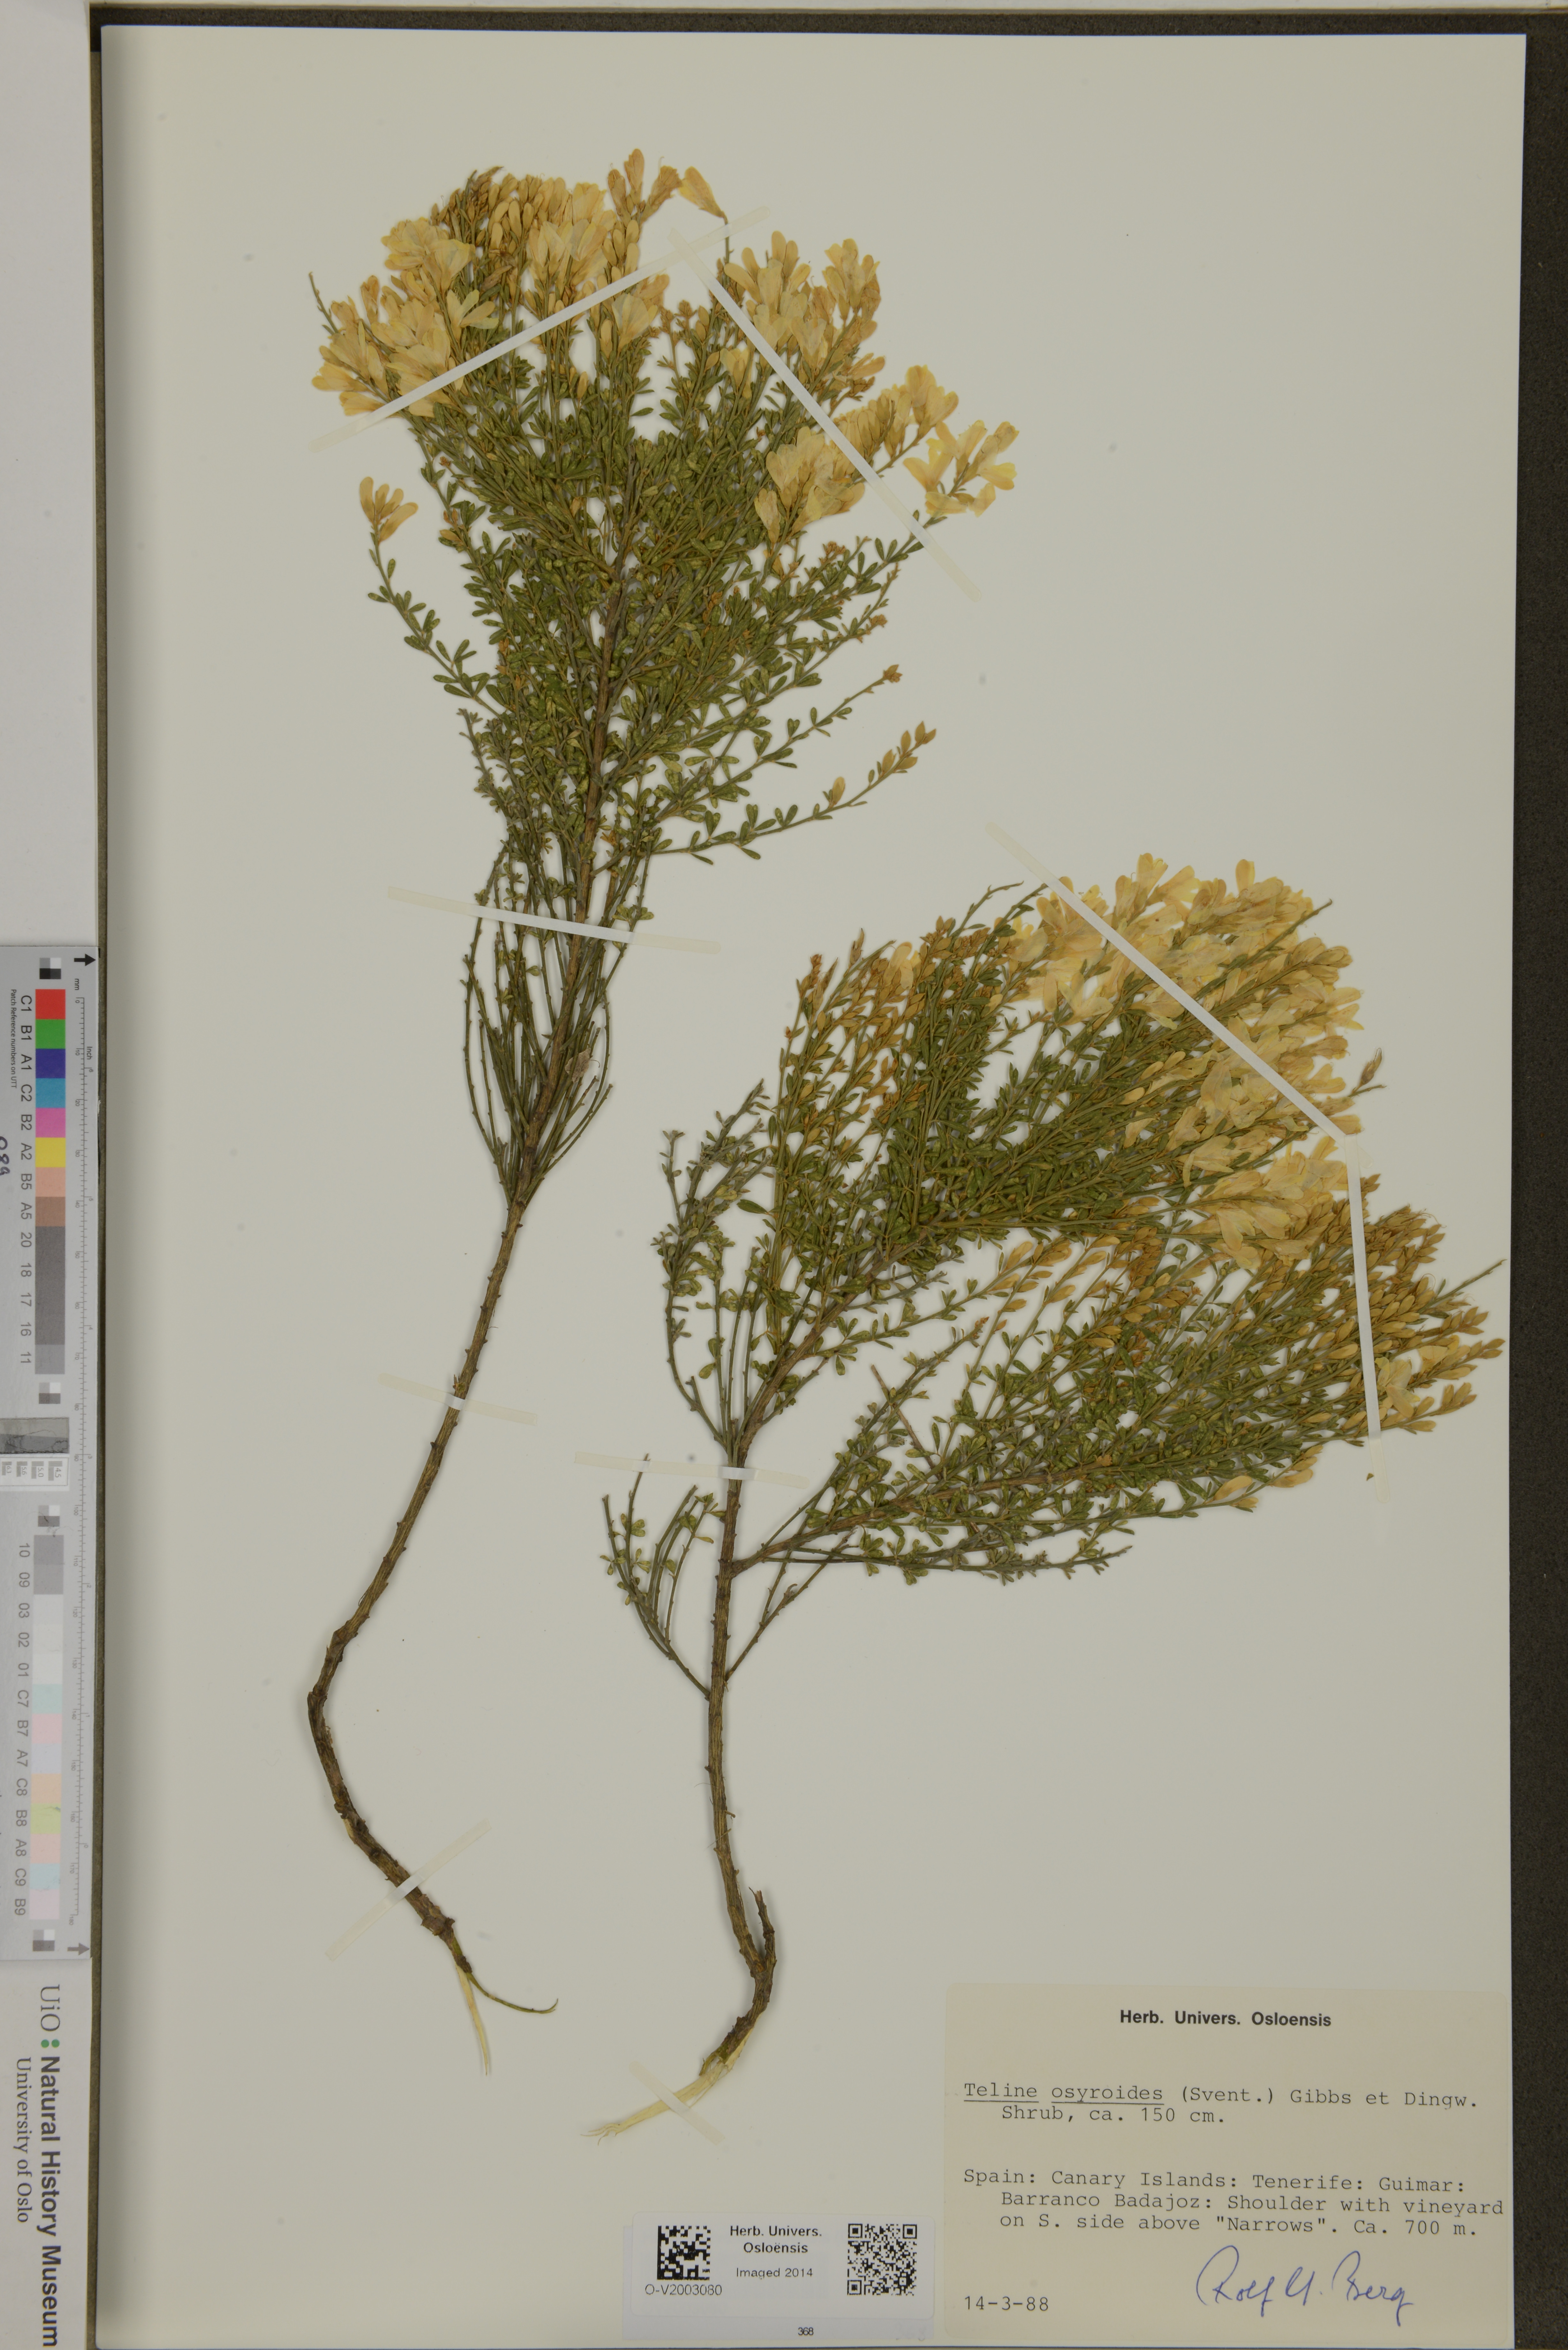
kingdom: Plantae
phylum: Tracheophyta
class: Magnoliopsida
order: Fabales
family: Fabaceae
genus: Cytisus
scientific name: Cytisus osyroides
